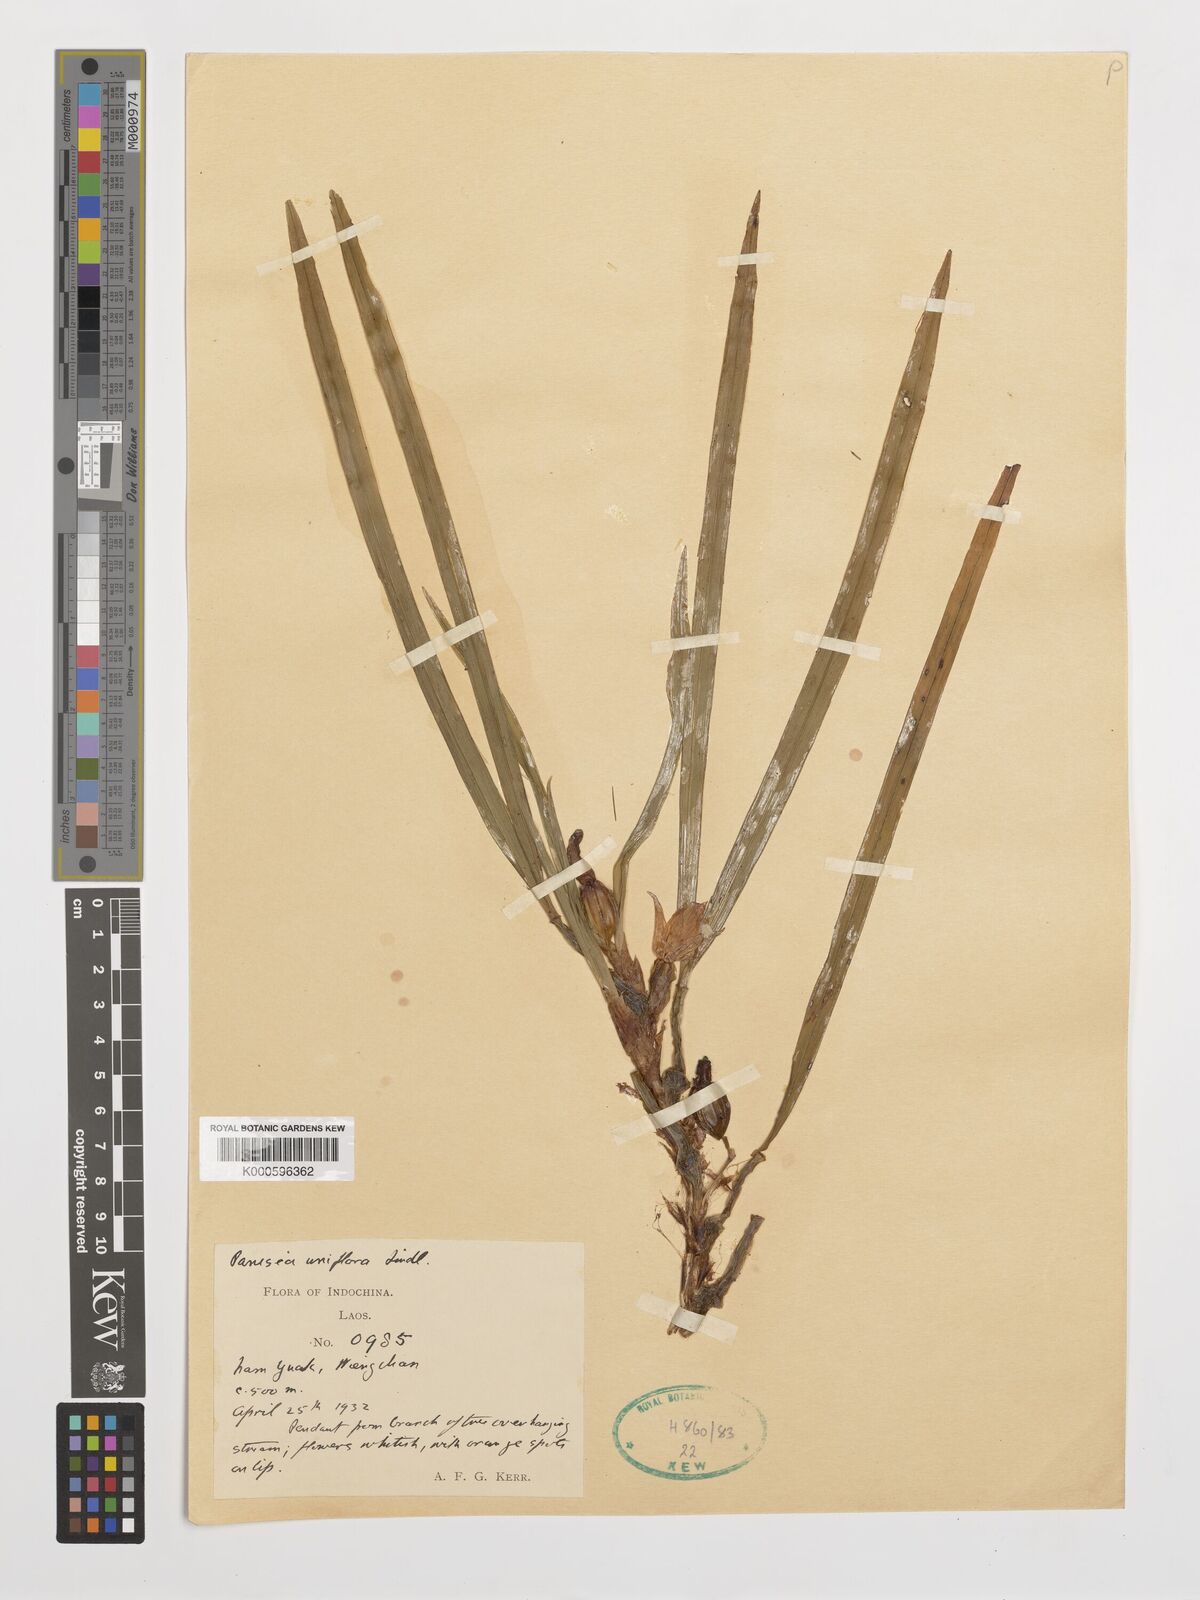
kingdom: Plantae
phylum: Tracheophyta
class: Liliopsida
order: Asparagales
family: Orchidaceae
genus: Coelogyne
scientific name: Coelogyne uniflora
